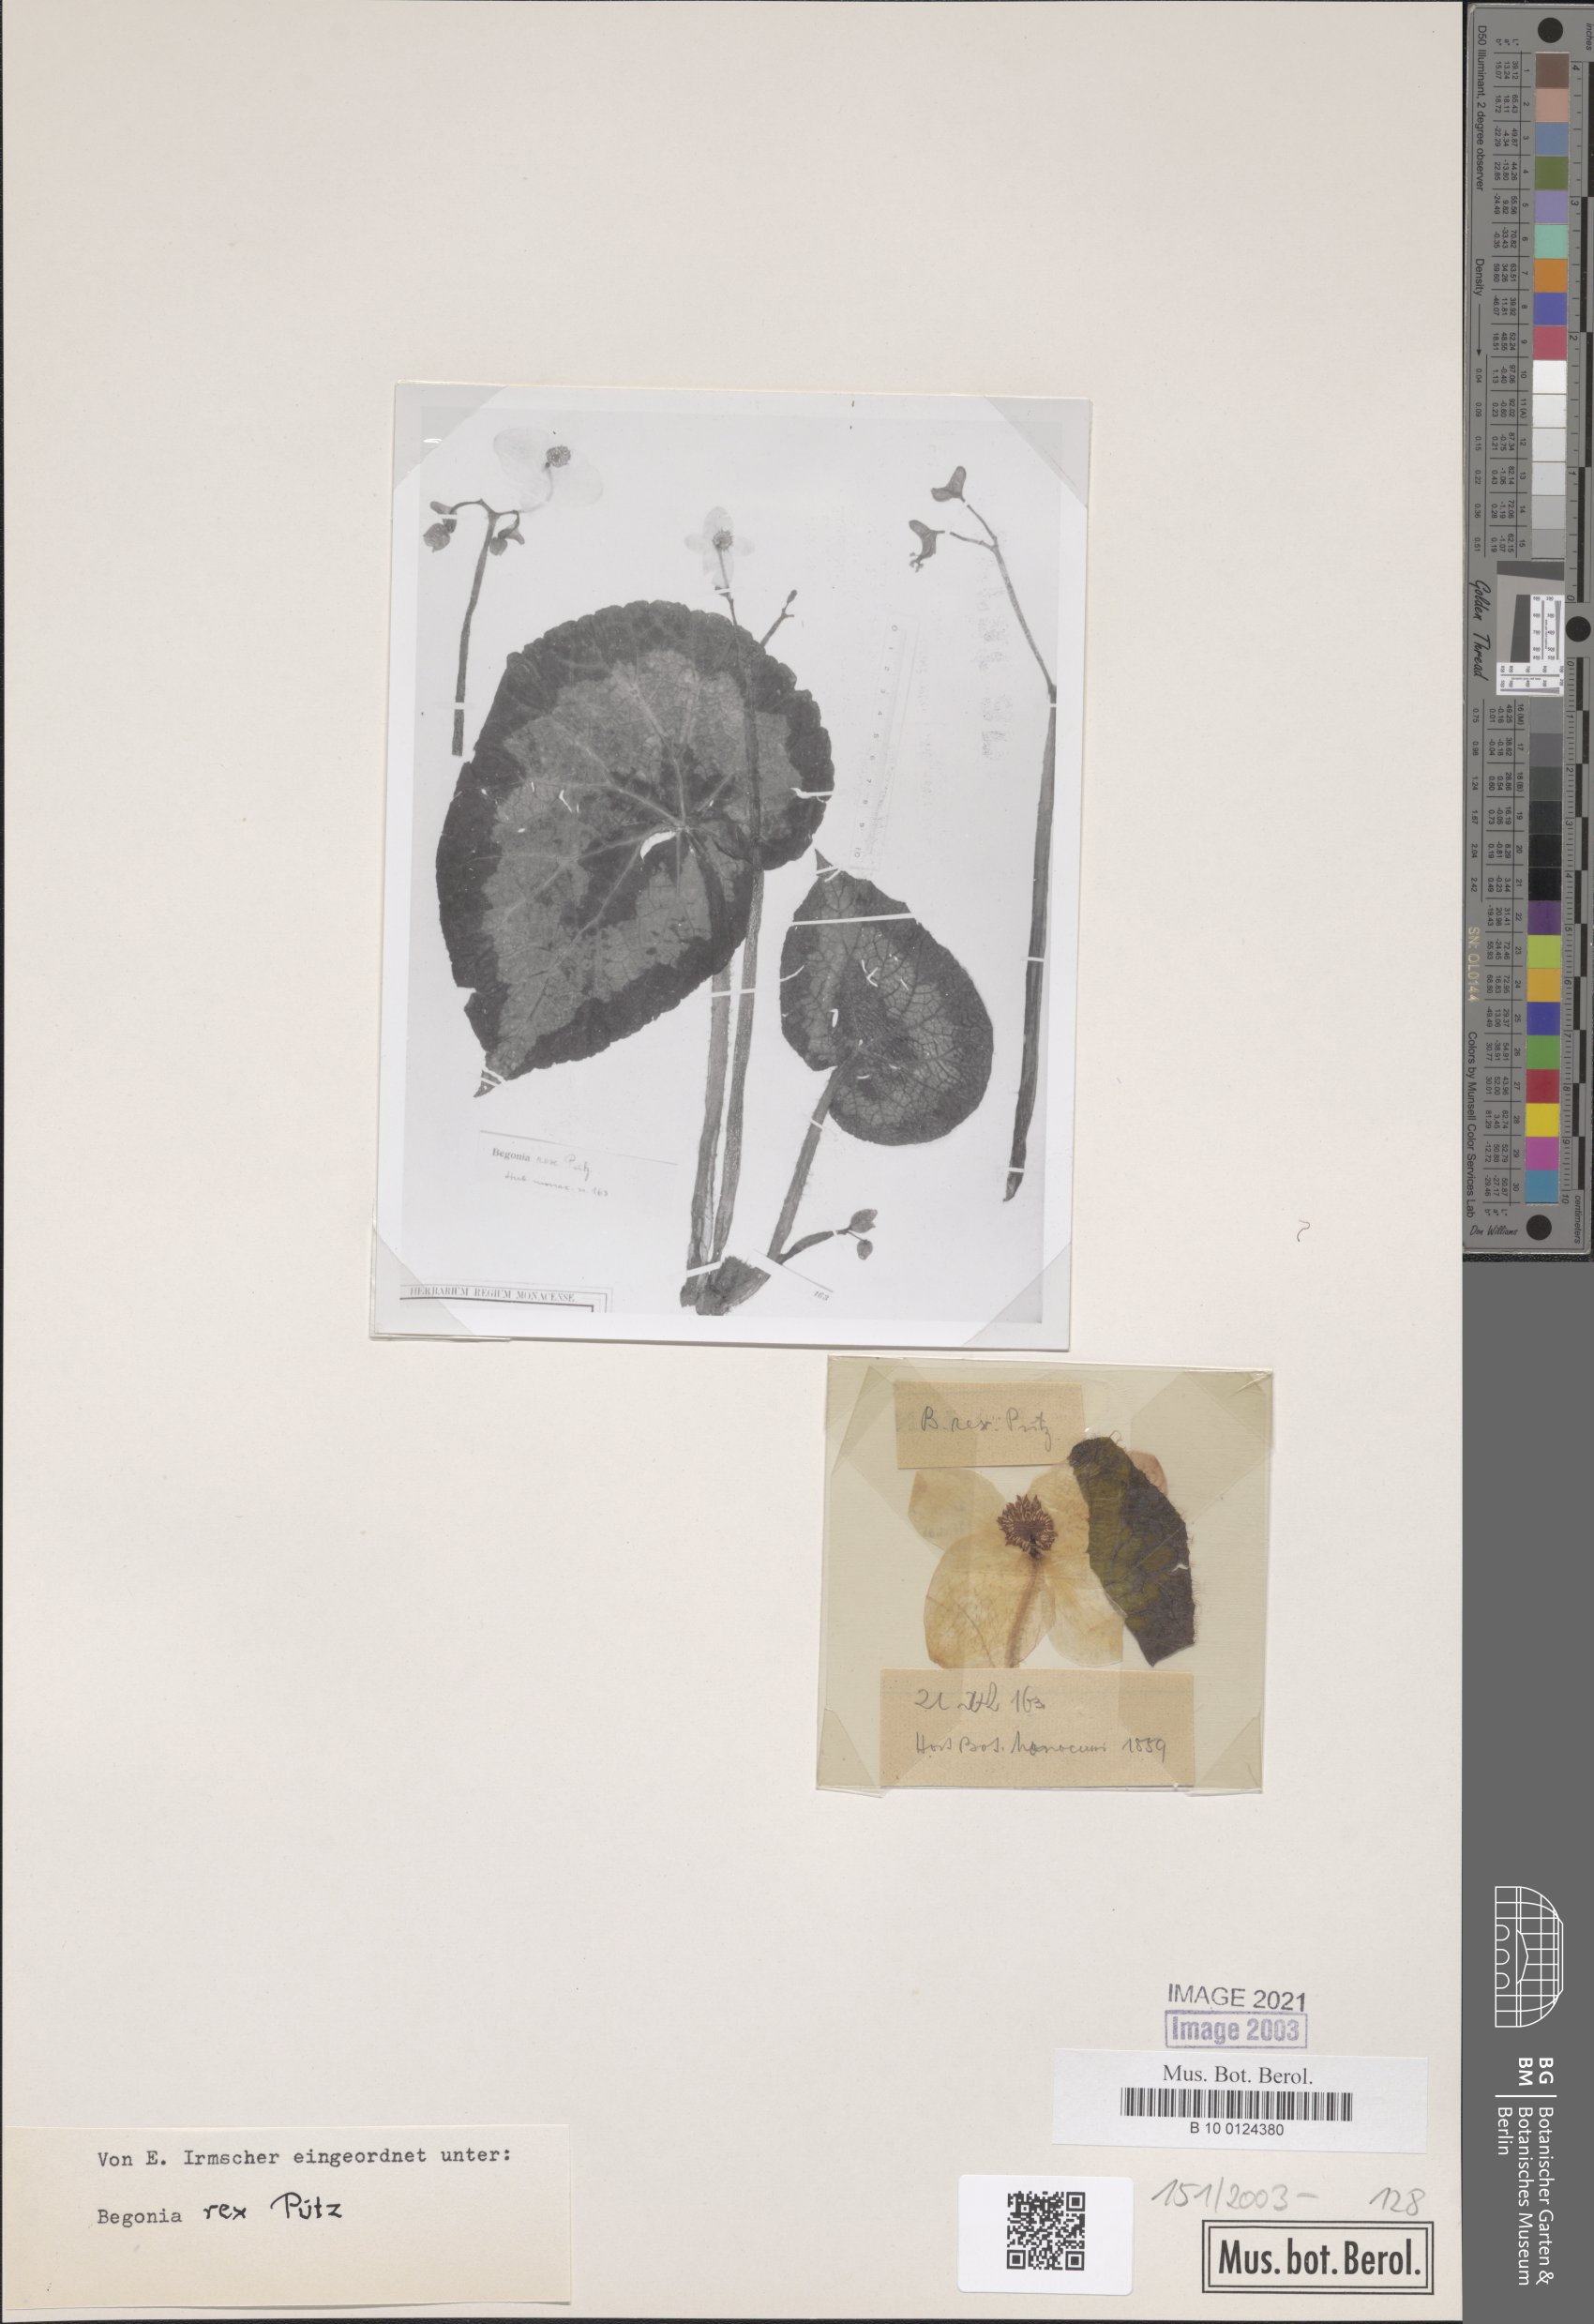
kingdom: Plantae
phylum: Tracheophyta
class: Magnoliopsida
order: Cucurbitales
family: Begoniaceae
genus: Begonia
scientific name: Begonia rex
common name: Painted-leaf begonia
